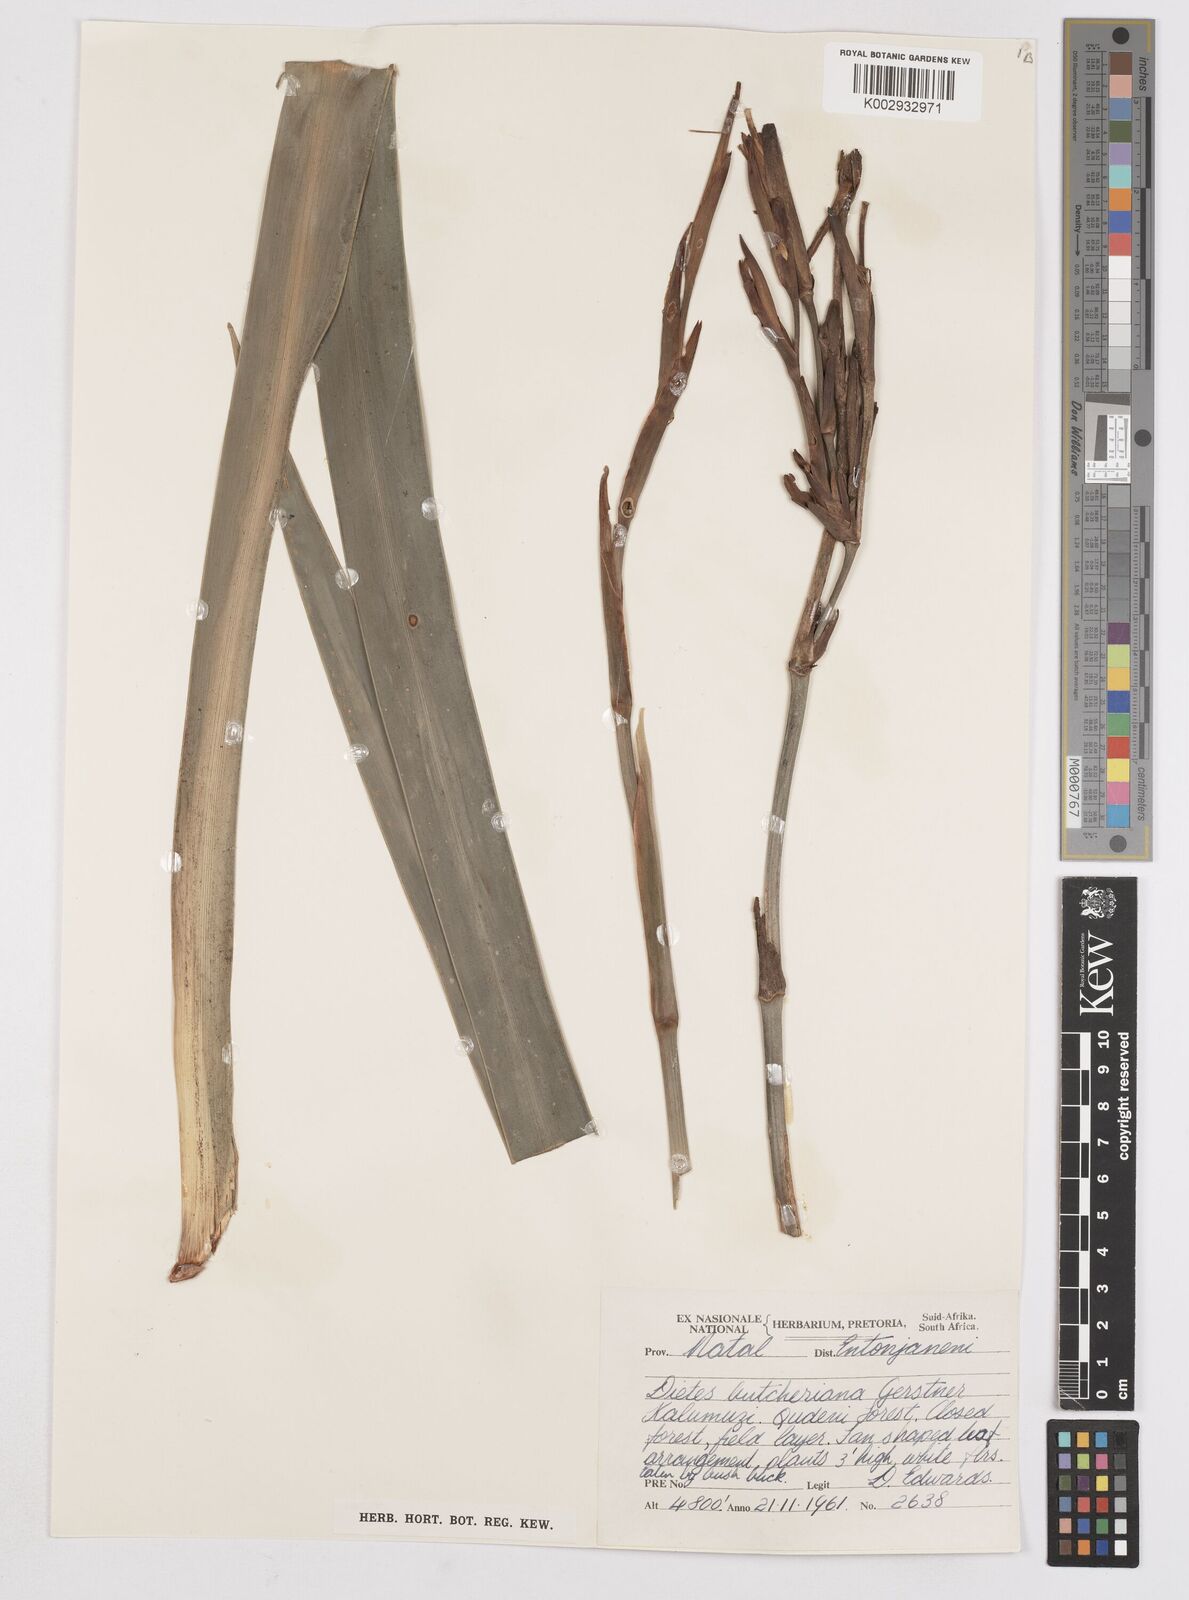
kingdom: Plantae
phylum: Tracheophyta
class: Liliopsida
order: Asparagales
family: Iridaceae
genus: Dietes
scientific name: Dietes butcheriana
